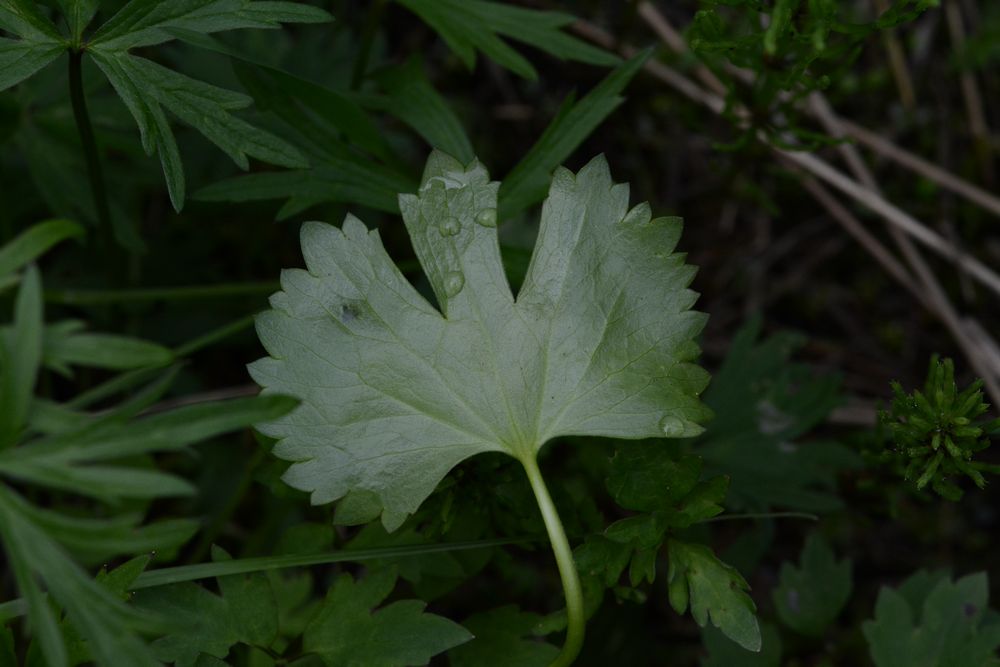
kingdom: Plantae
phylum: Tracheophyta
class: Magnoliopsida
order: Ranunculales
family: Ranunculaceae
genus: Ranunculus
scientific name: Ranunculus auricomus
